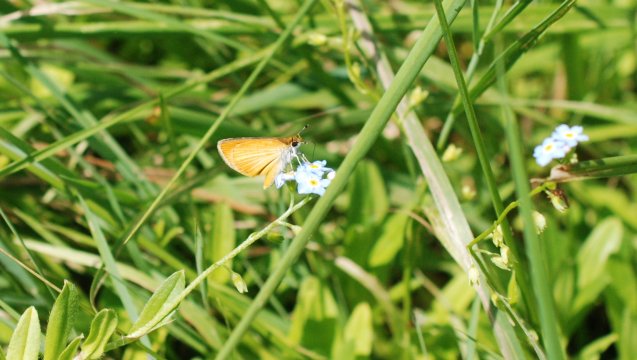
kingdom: Animalia
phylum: Arthropoda
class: Insecta
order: Lepidoptera
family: Hesperiidae
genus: Ancyloxypha
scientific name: Ancyloxypha numitor
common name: Least Skipper
